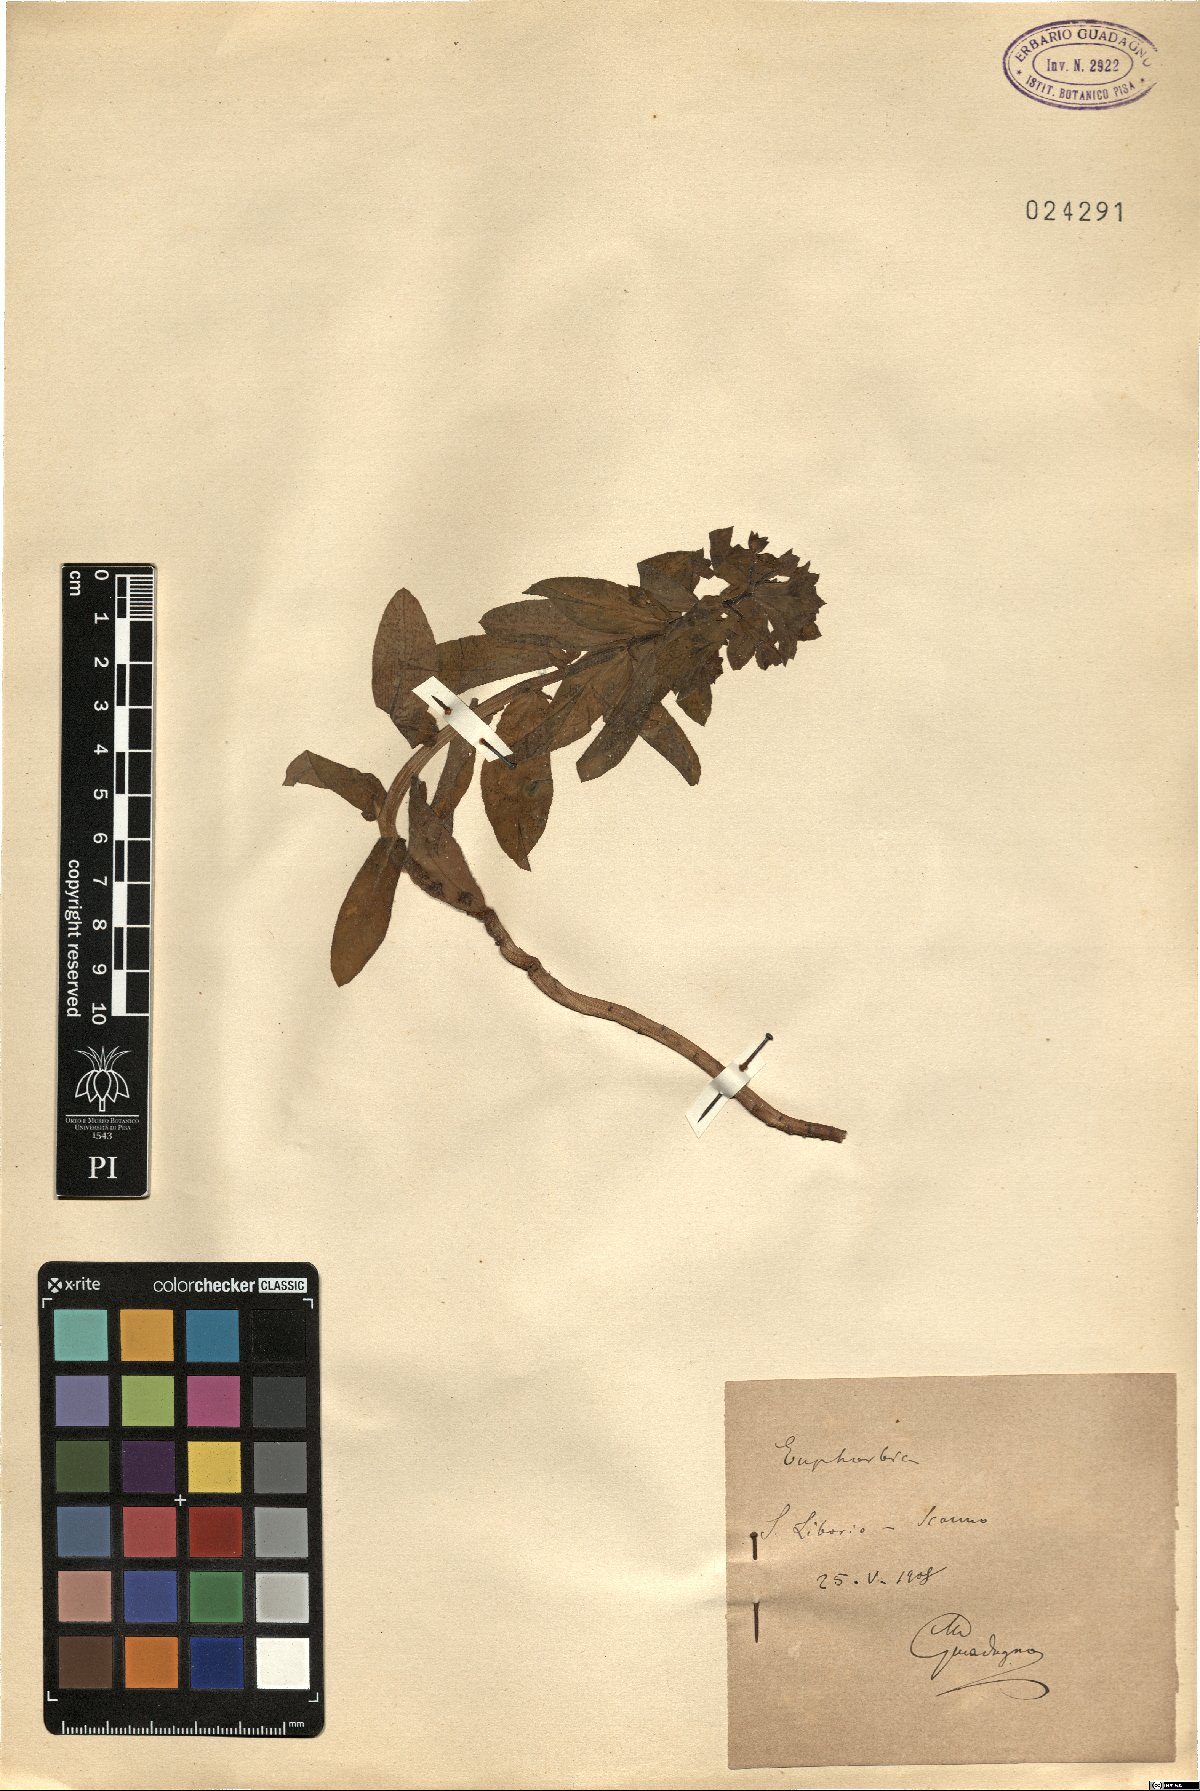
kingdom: Plantae
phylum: Tracheophyta
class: Magnoliopsida
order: Malpighiales
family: Euphorbiaceae
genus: Euphorbia
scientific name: Euphorbia
